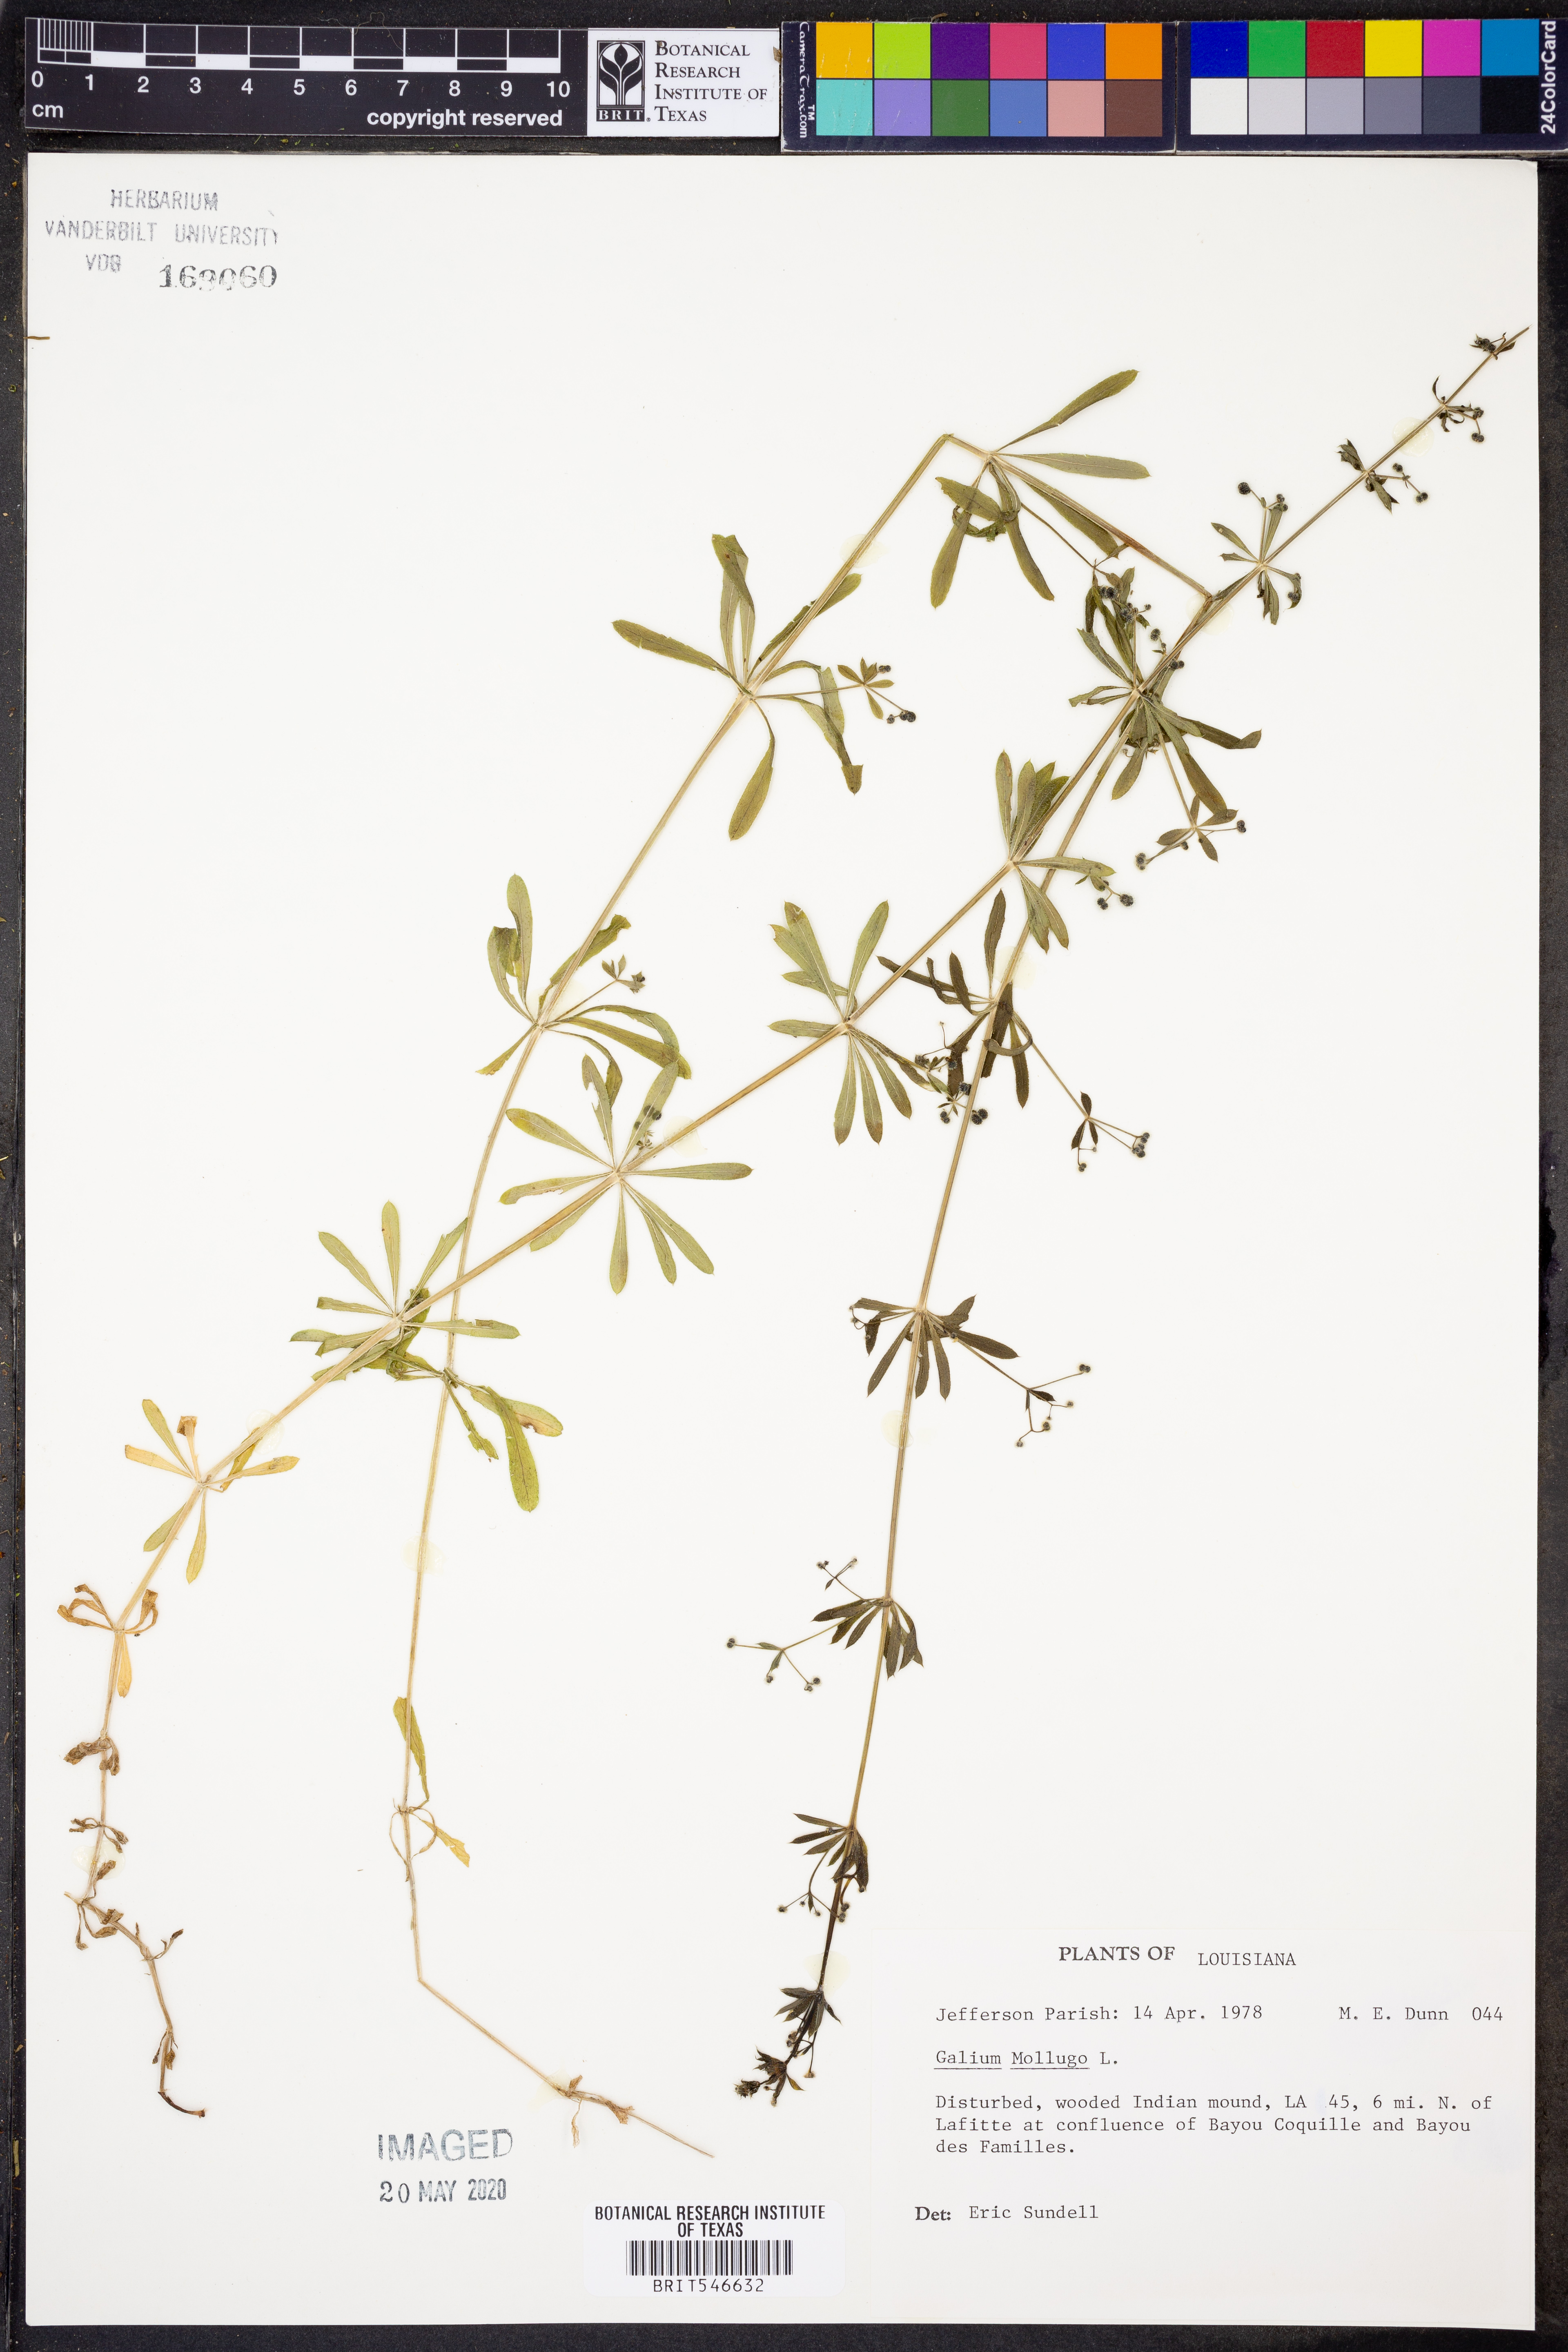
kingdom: Plantae
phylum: Tracheophyta
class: Magnoliopsida
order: Gentianales
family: Rubiaceae
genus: Galium
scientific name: Galium mollugo
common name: Hedge bedstraw
